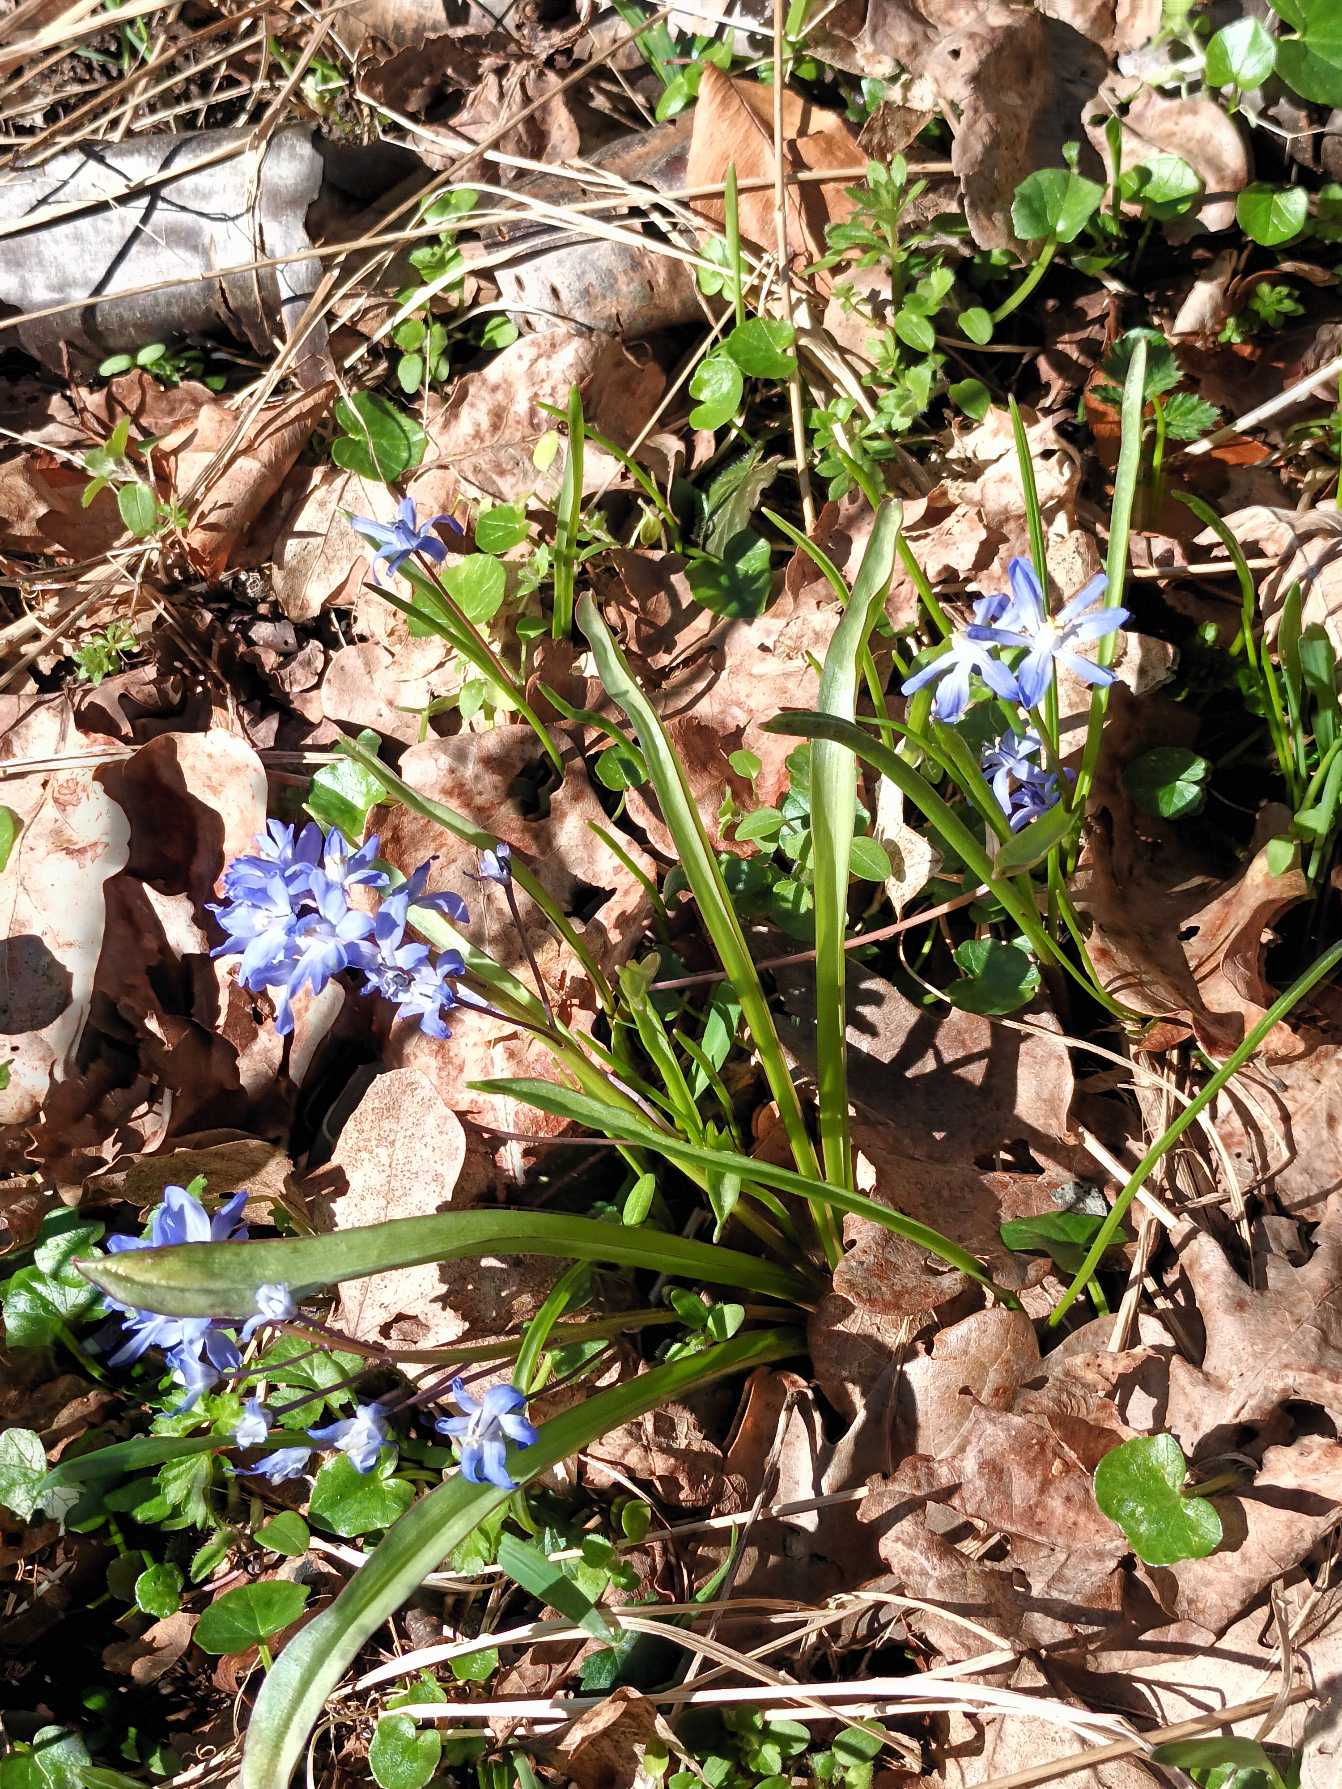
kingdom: Plantae
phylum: Tracheophyta
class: Liliopsida
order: Asparagales
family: Asparagaceae
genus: Scilla
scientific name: Scilla forbesii
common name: Almindelig snepryd
